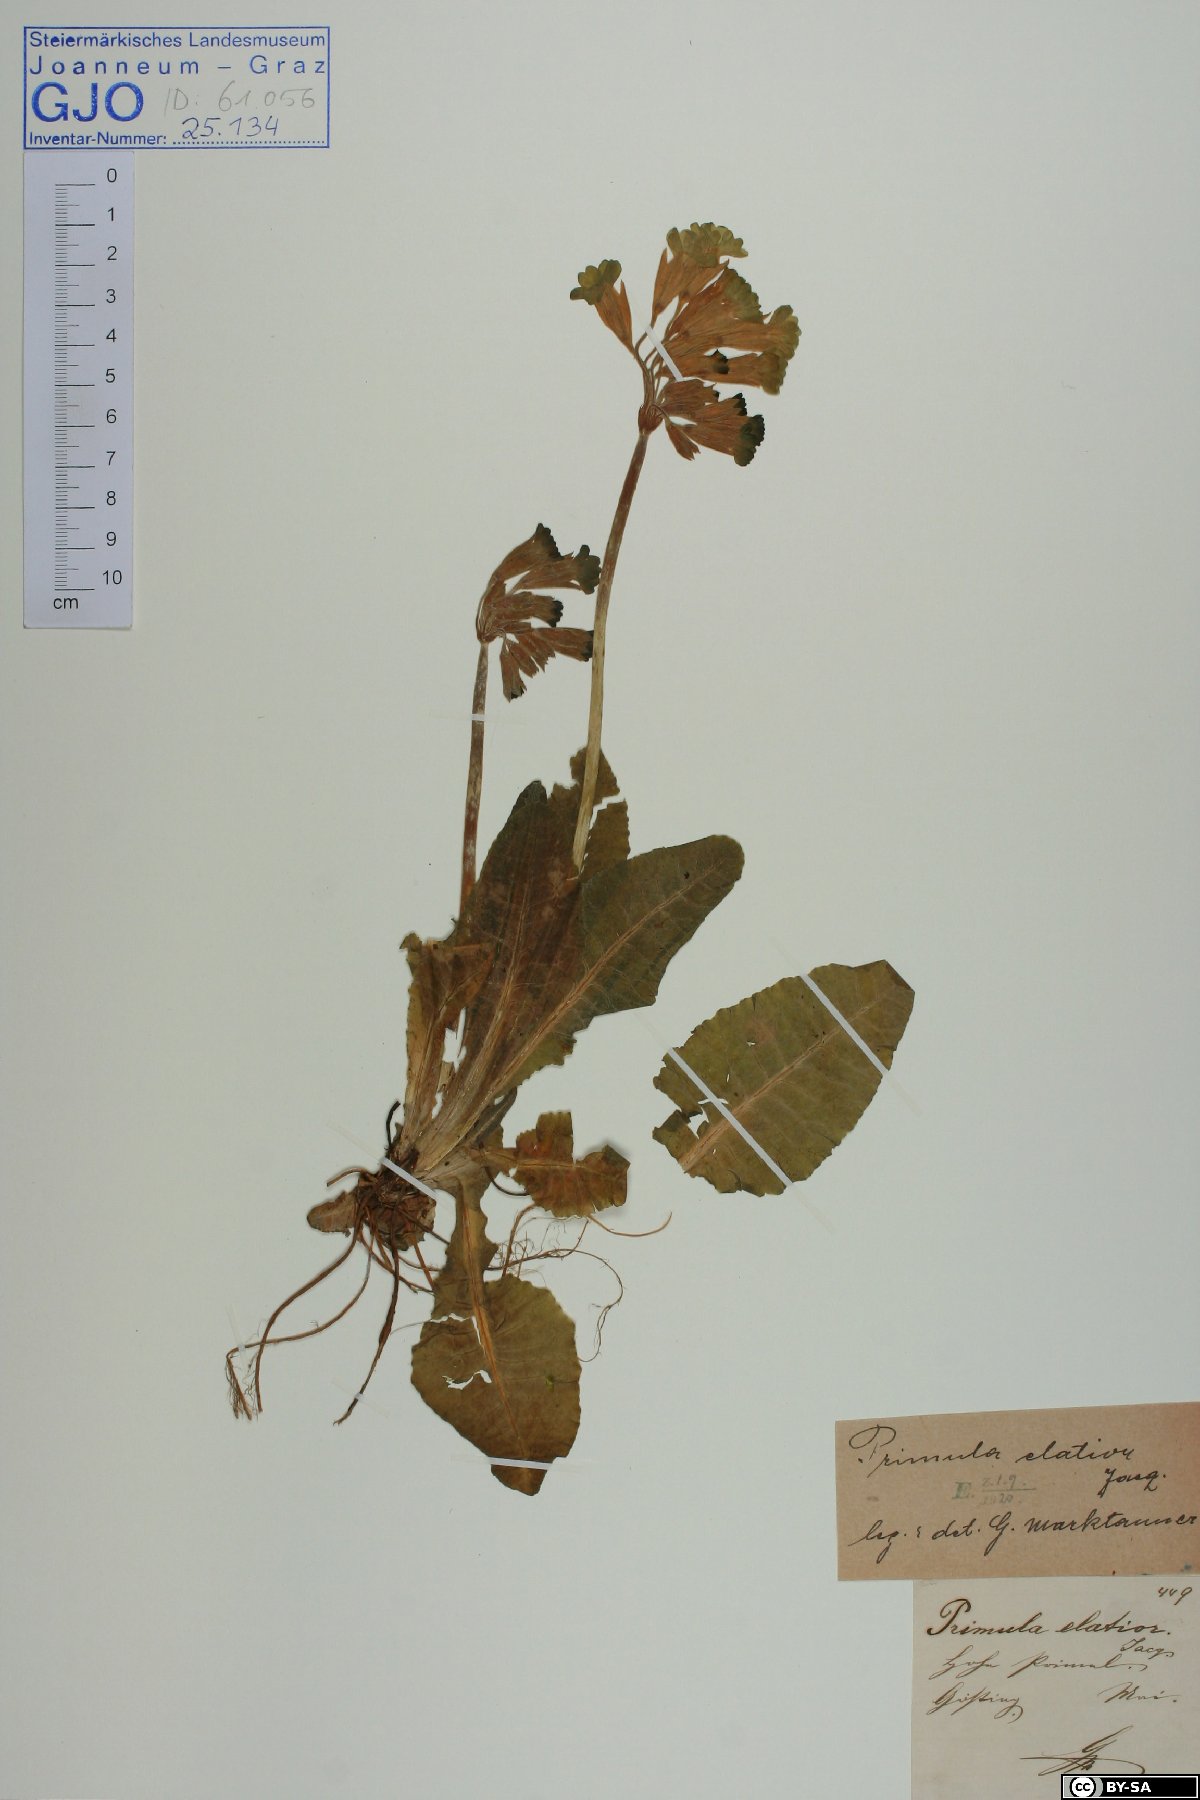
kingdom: Plantae
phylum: Tracheophyta
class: Magnoliopsida
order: Ericales
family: Primulaceae
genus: Primula
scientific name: Primula veris
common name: Cowslip
